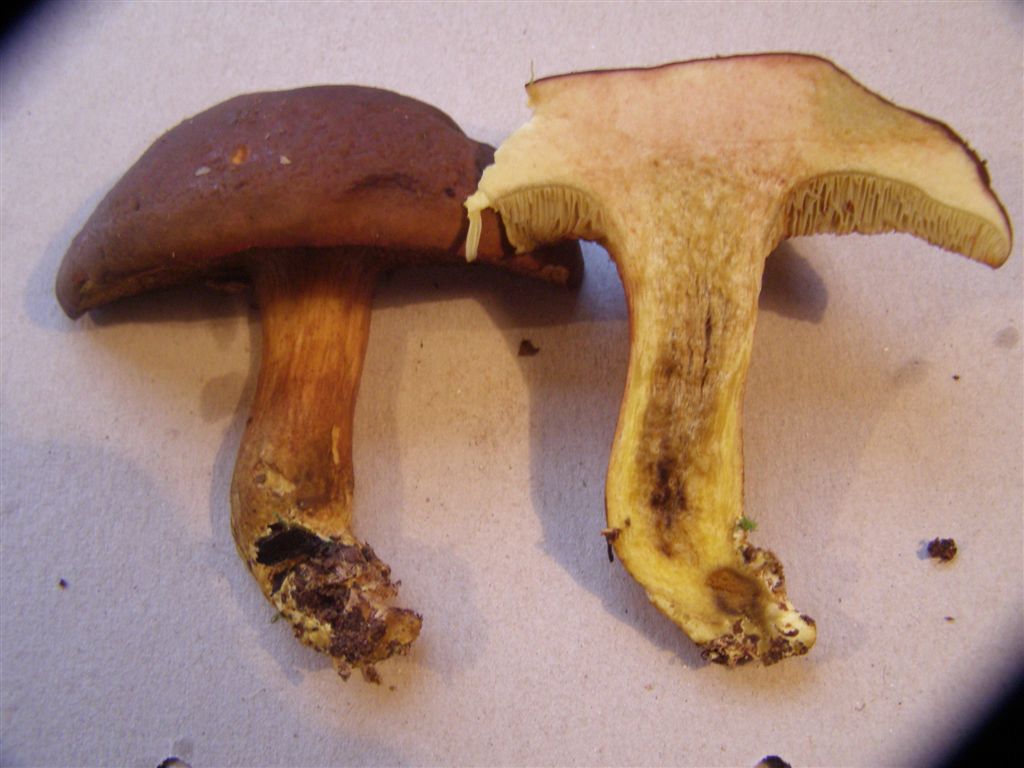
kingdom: Fungi
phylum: Basidiomycota
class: Agaricomycetes
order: Boletales
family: Boletaceae
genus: Xerocomellus
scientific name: Xerocomellus pruinatus
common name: dugget rørhat
